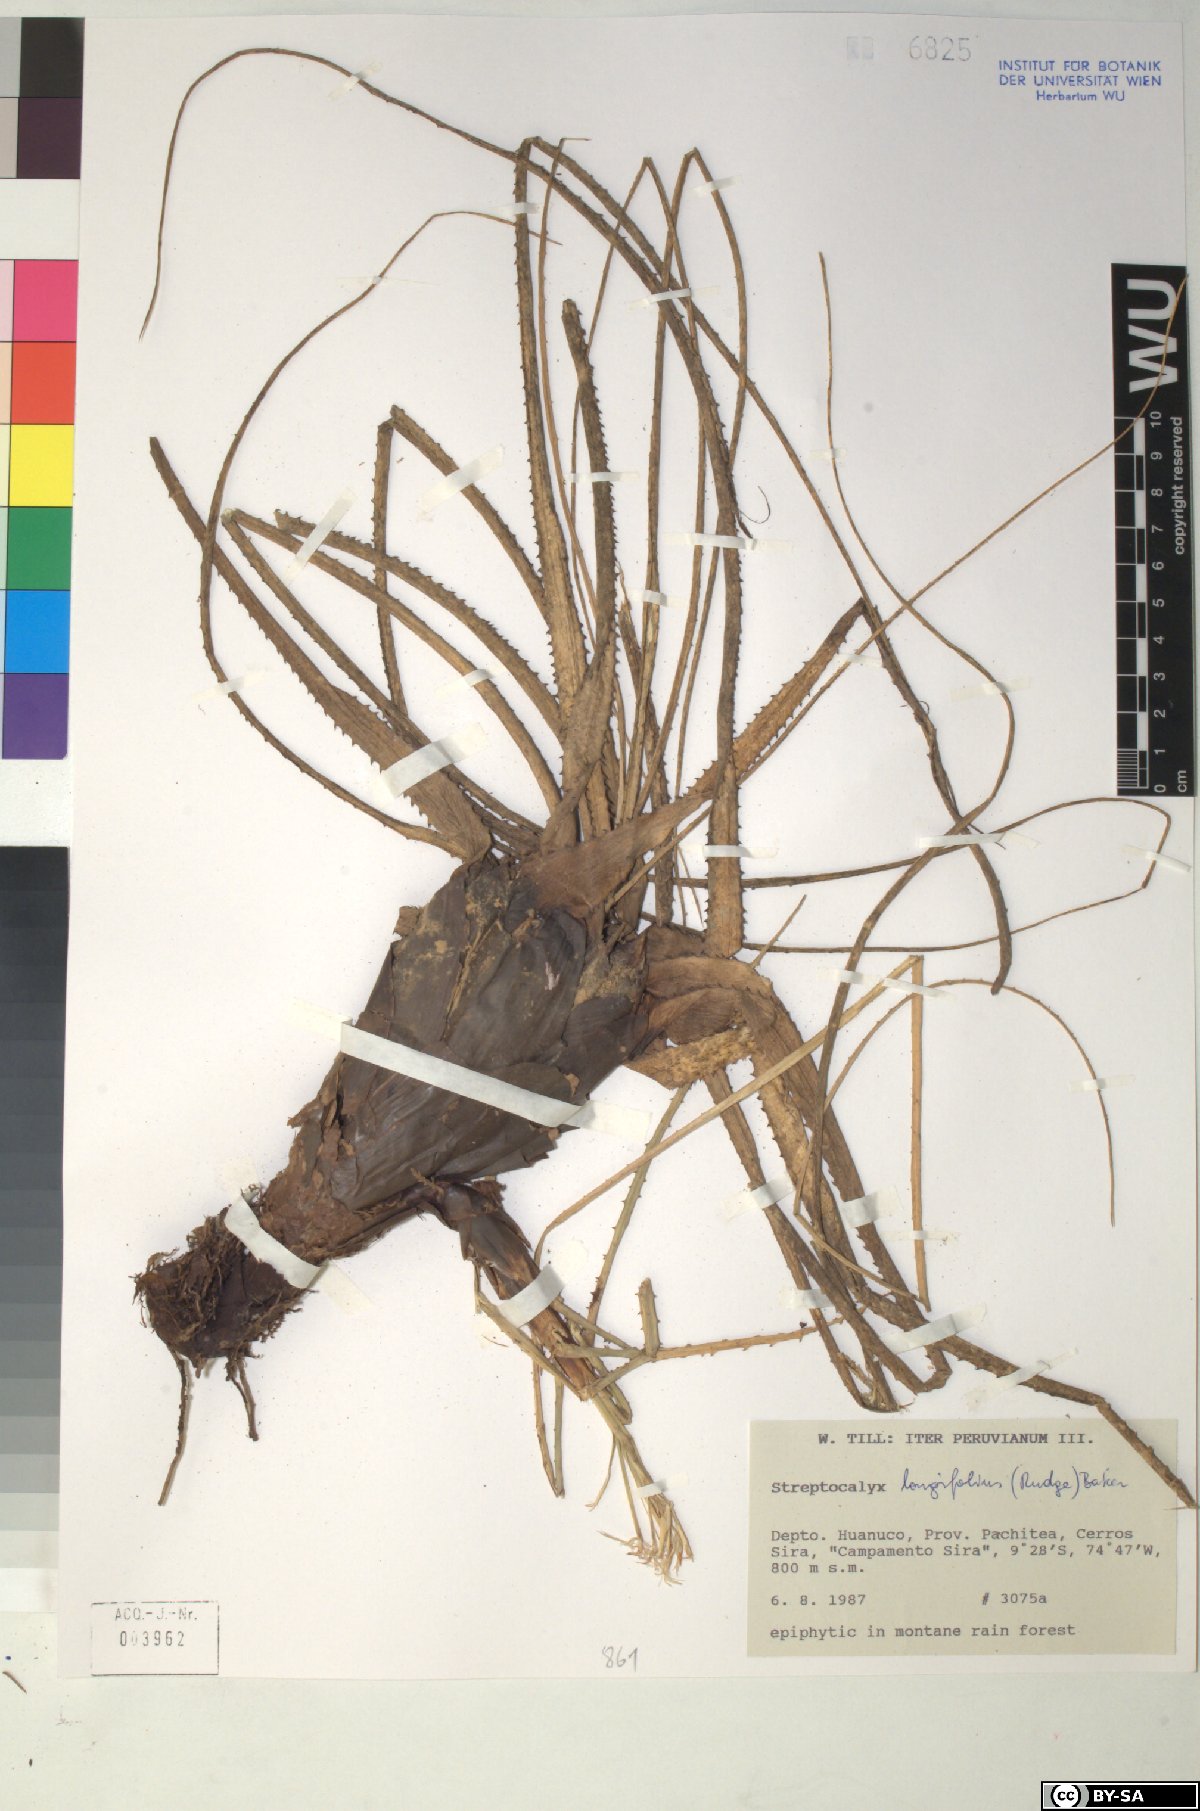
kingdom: Plantae
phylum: Tracheophyta
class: Liliopsida
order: Poales
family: Bromeliaceae
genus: Aechmea
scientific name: Aechmea longifolia
